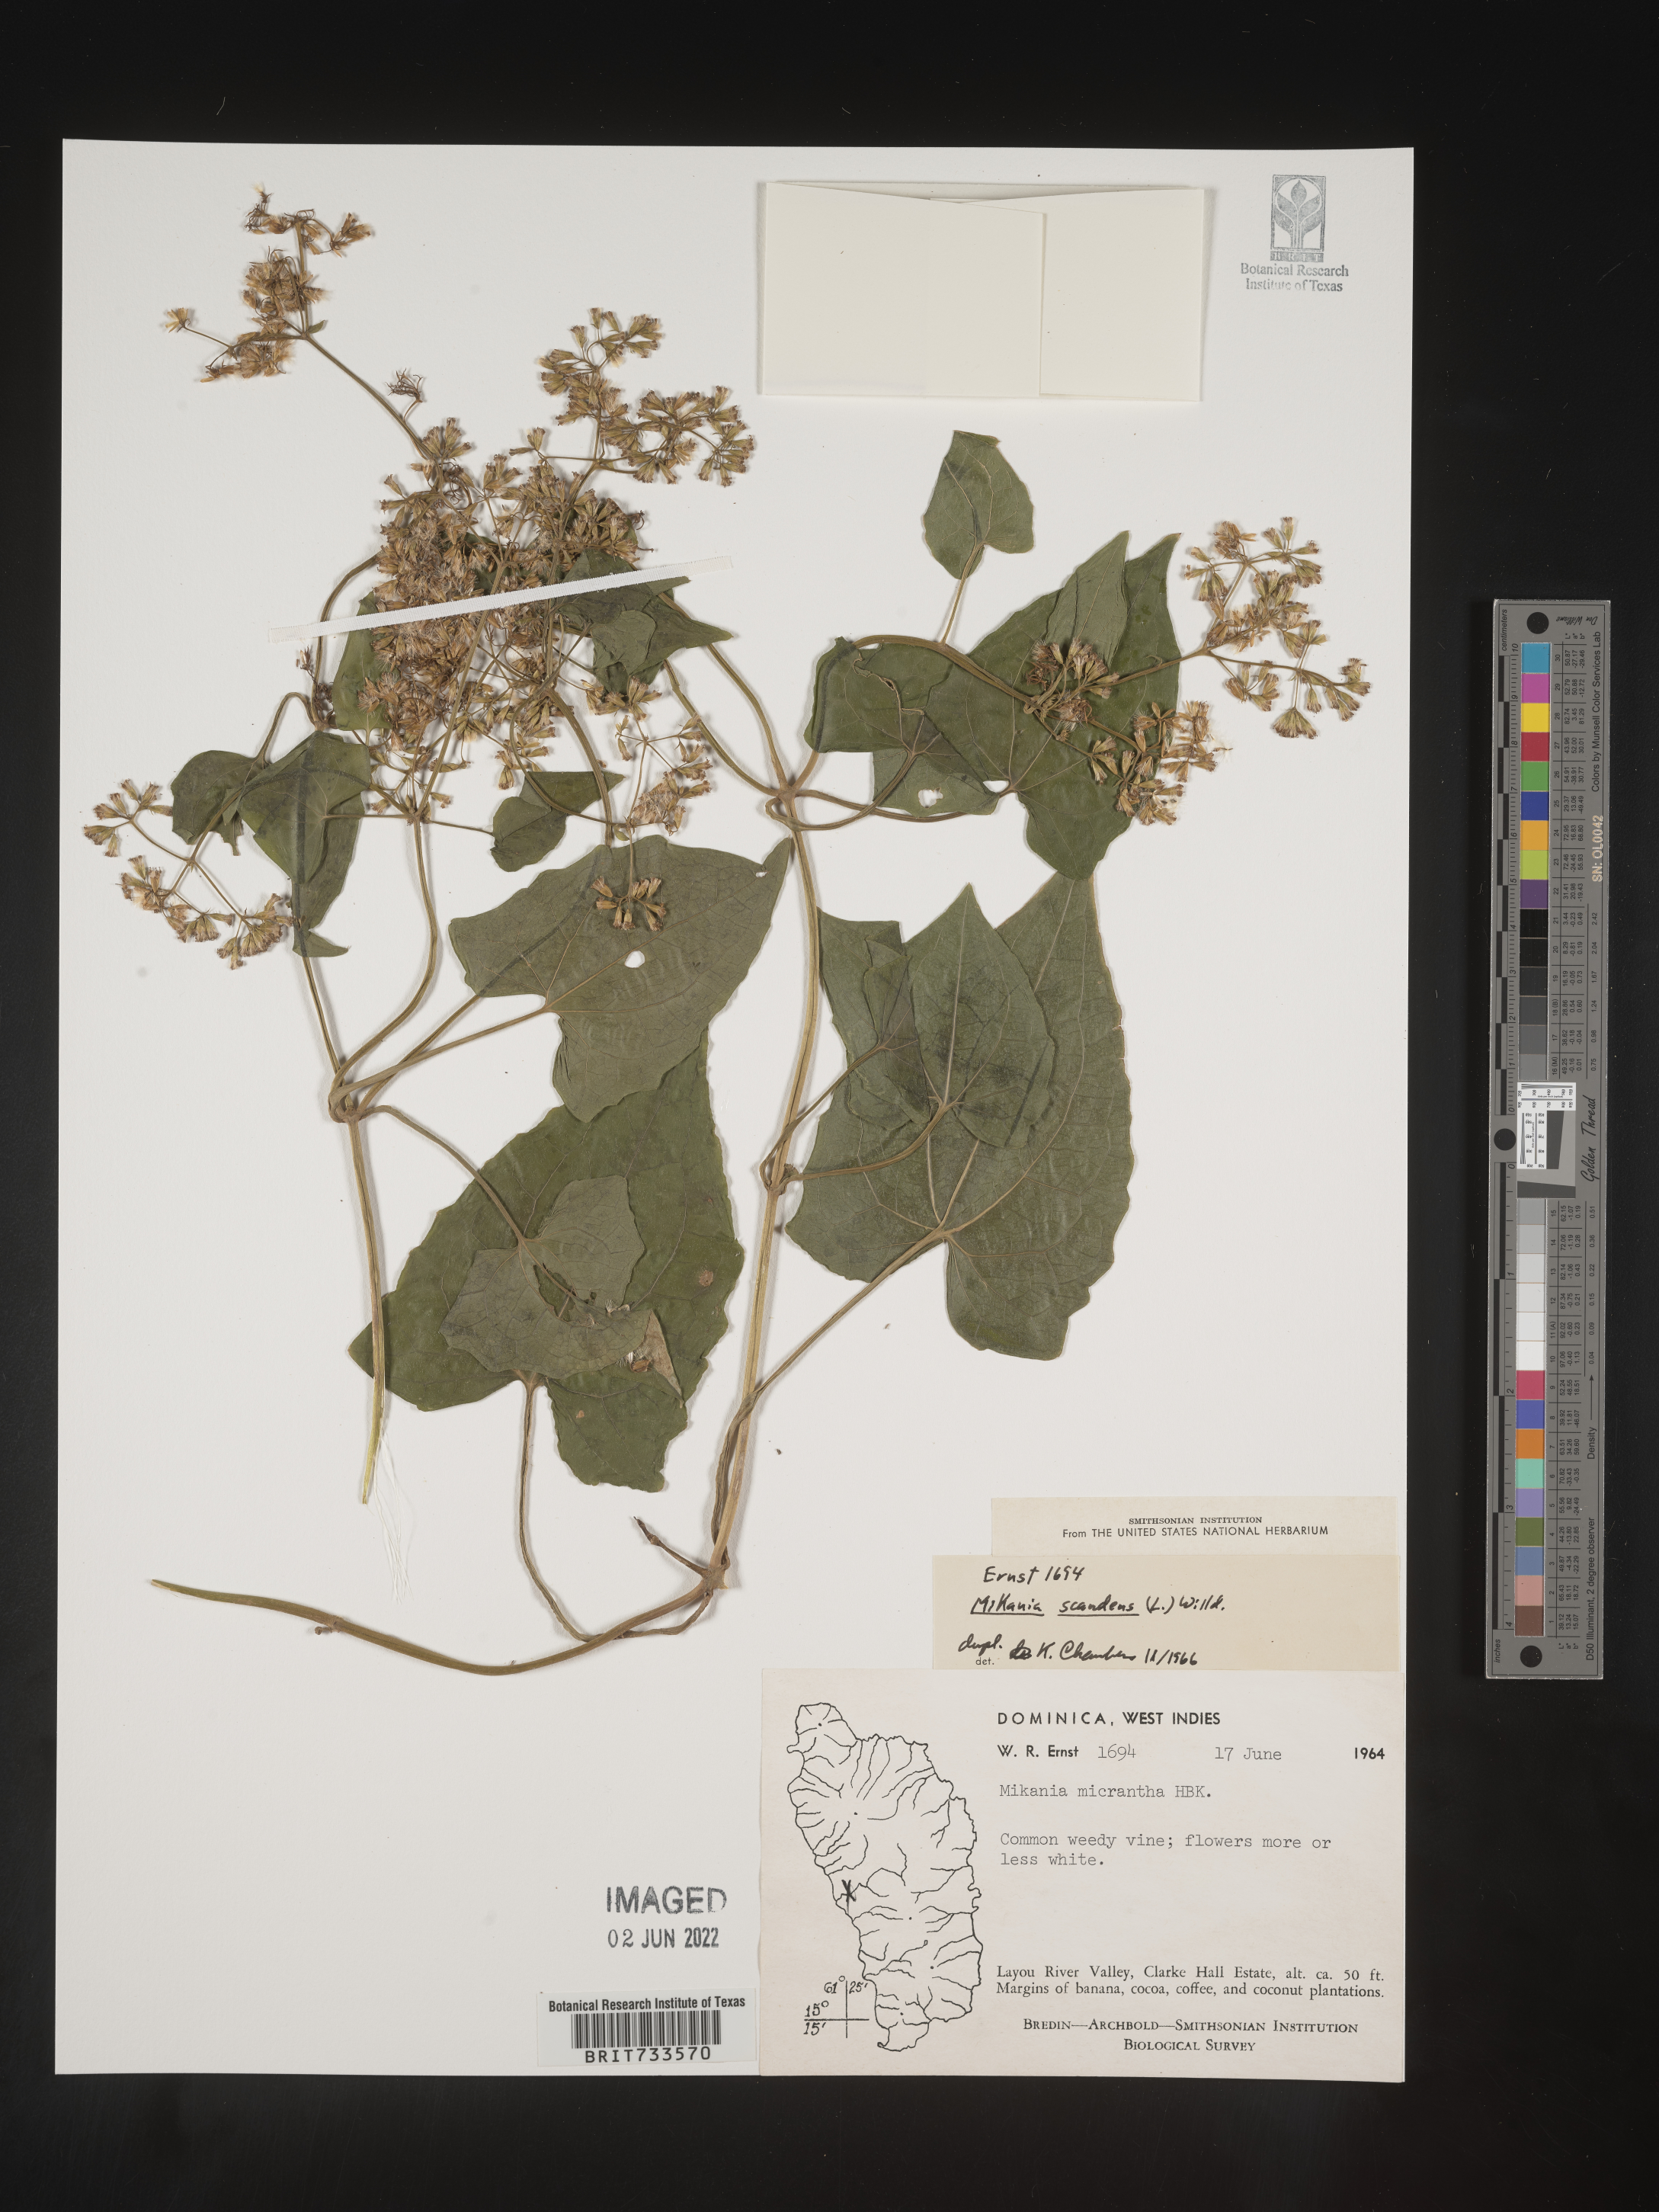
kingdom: Plantae
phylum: Tracheophyta
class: Magnoliopsida
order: Asterales
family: Asteraceae
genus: Mikania
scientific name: Mikania
